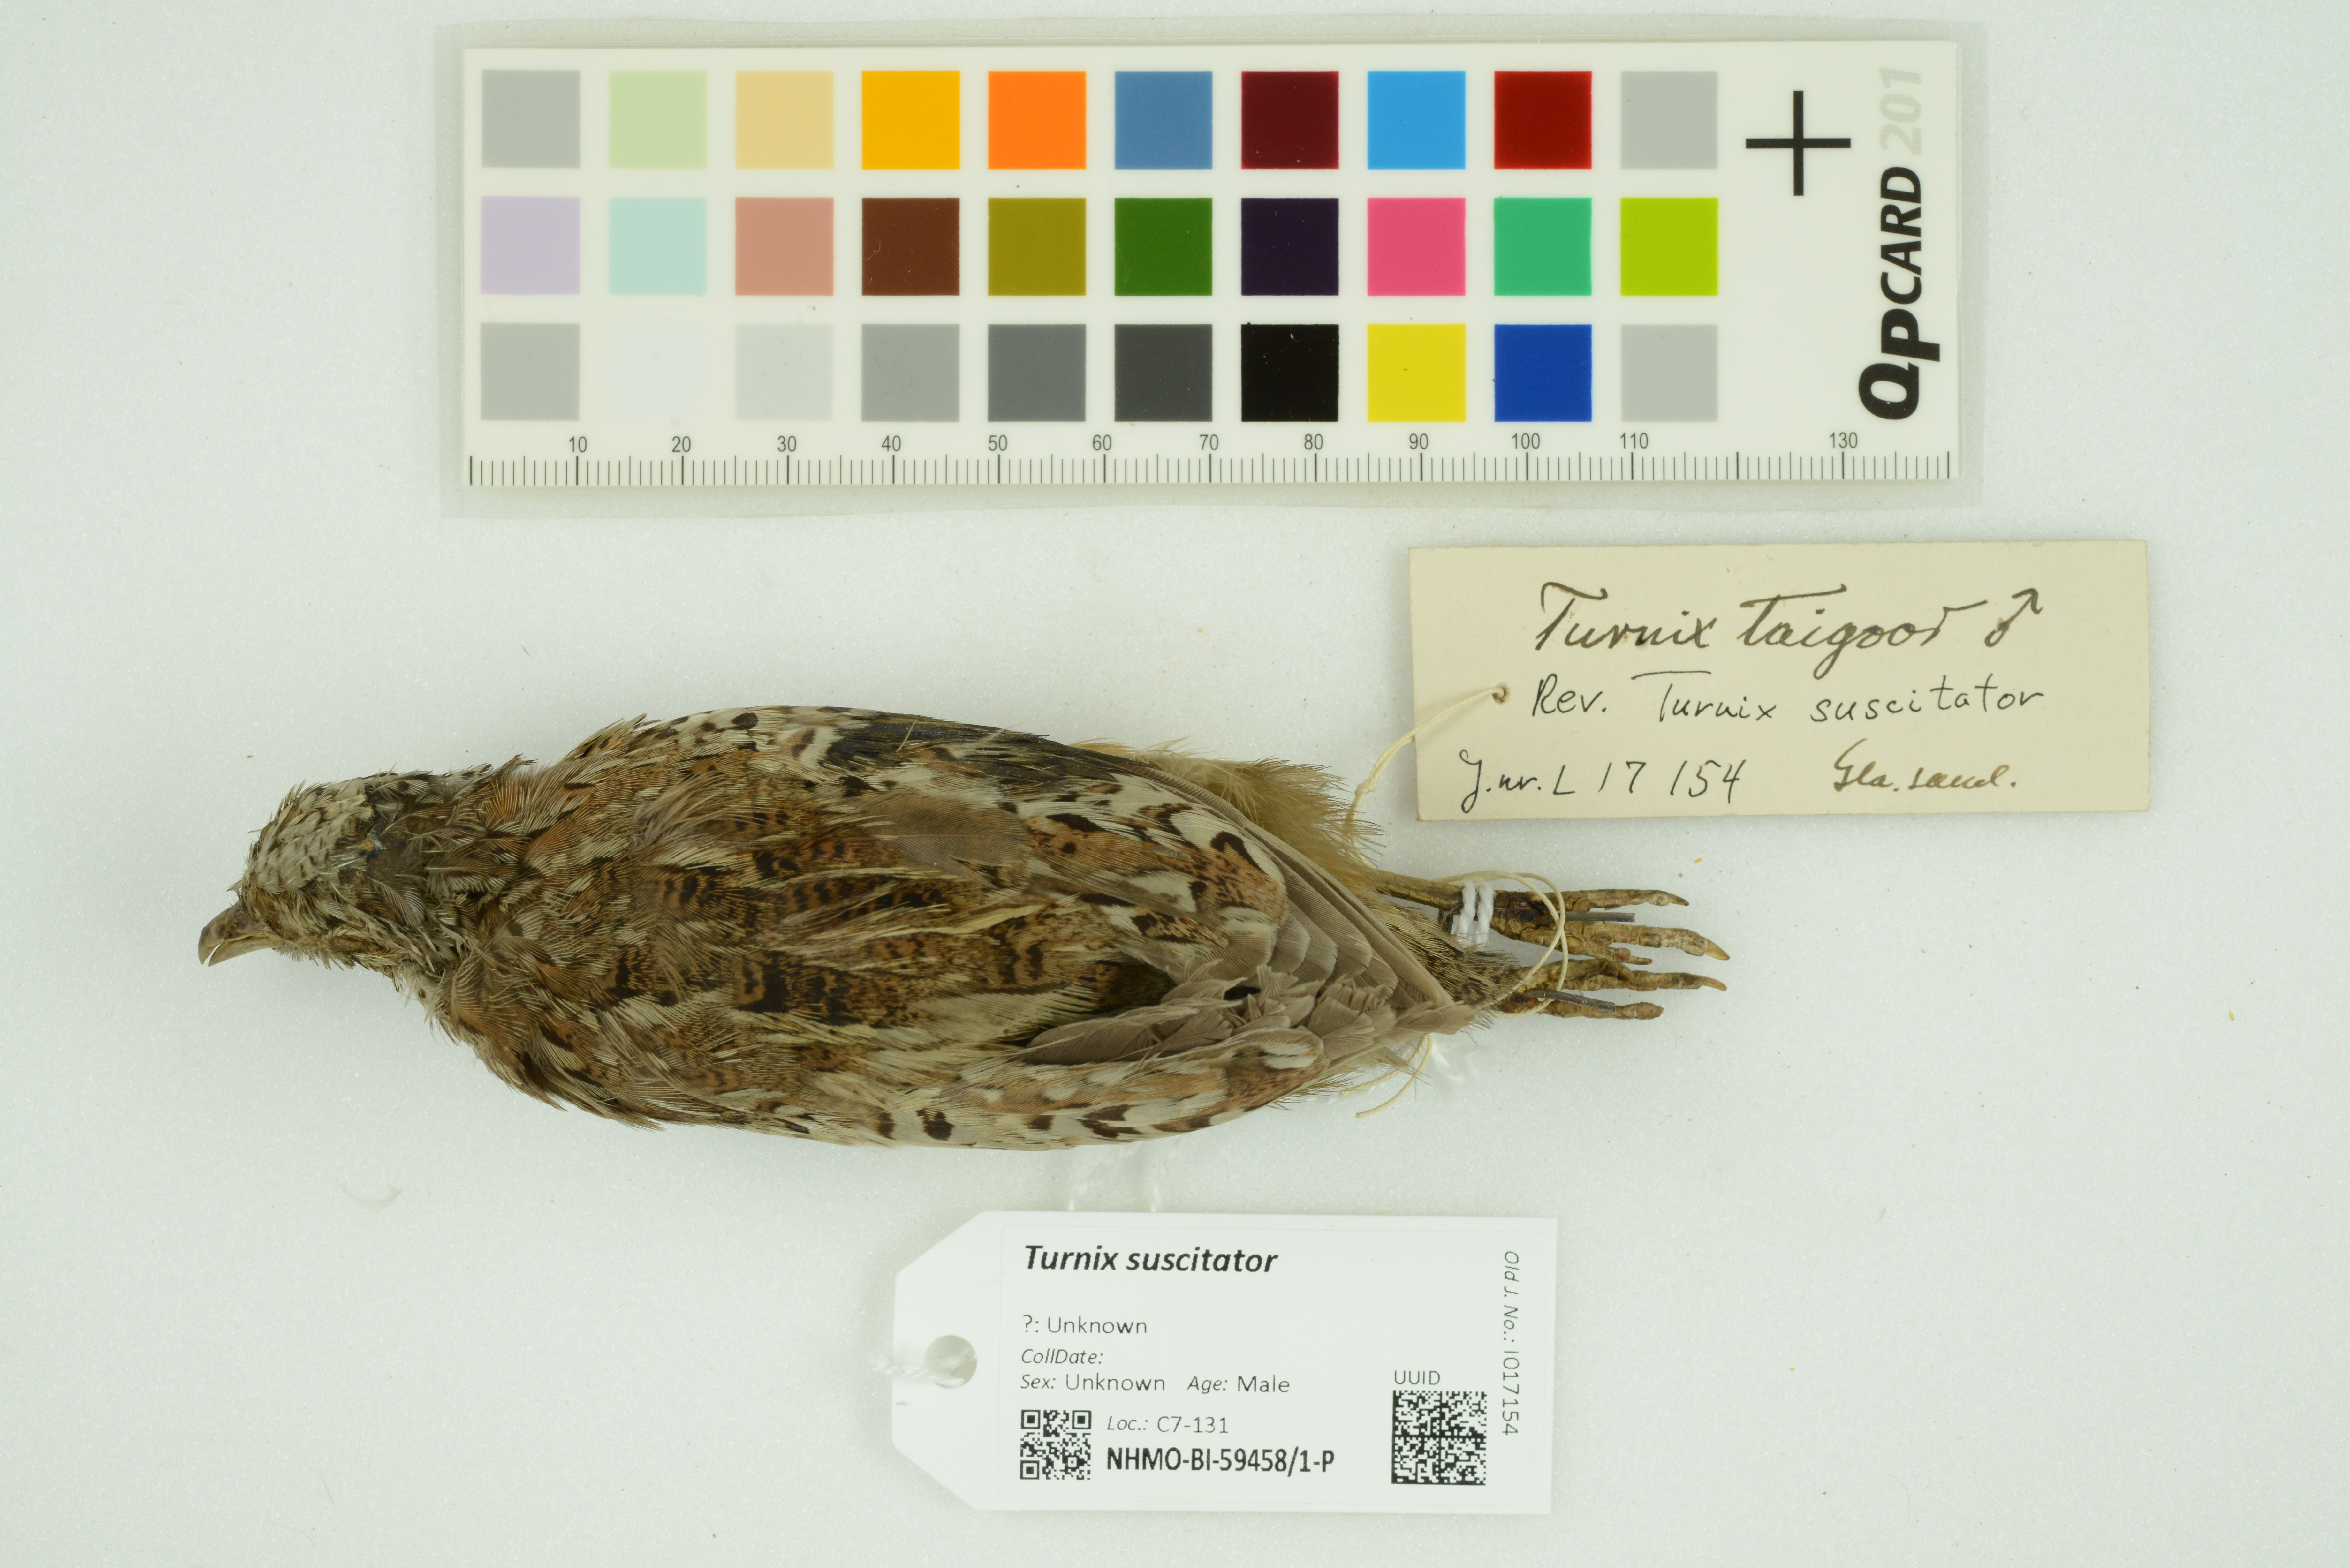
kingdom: Animalia
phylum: Chordata
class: Aves
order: Charadriiformes
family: Turnicidae
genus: Turnix
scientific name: Turnix suscitator
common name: Barred buttonquail
